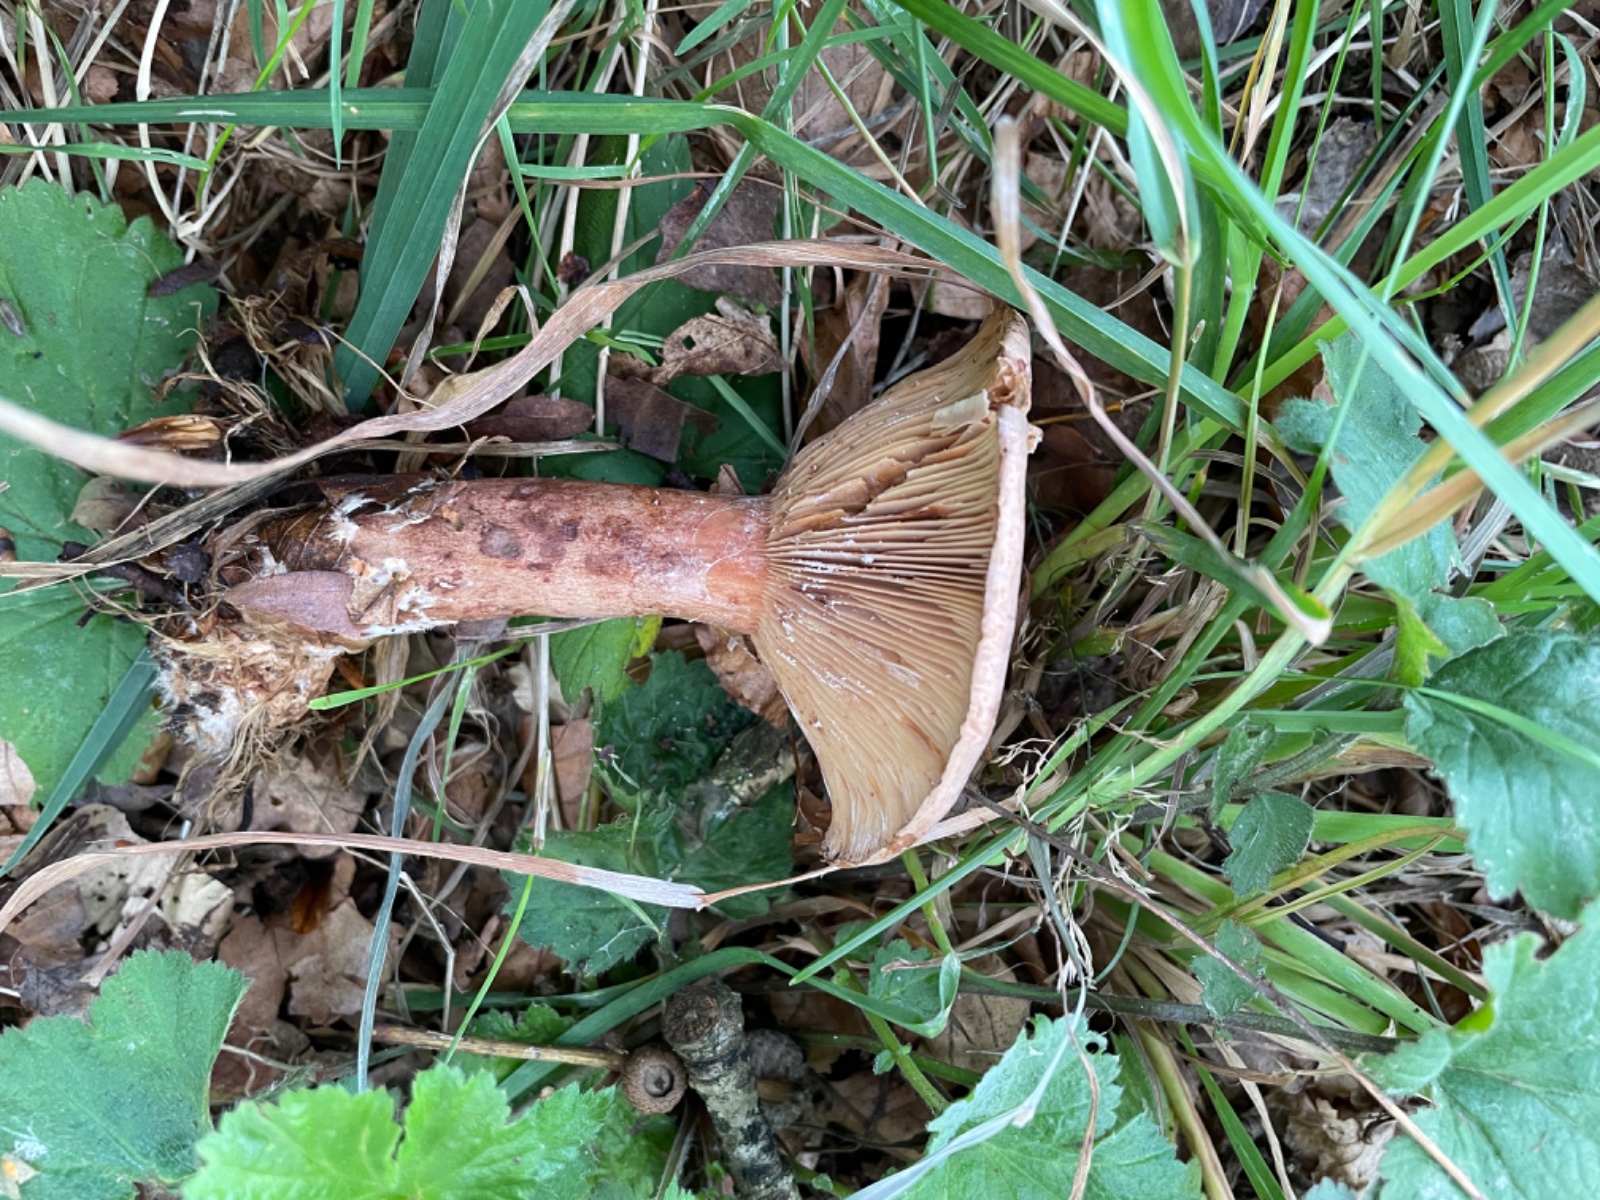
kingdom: Fungi
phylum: Basidiomycota
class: Agaricomycetes
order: Russulales
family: Russulaceae
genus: Lactarius
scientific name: Lactarius quietus
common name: ege-mælkehat
